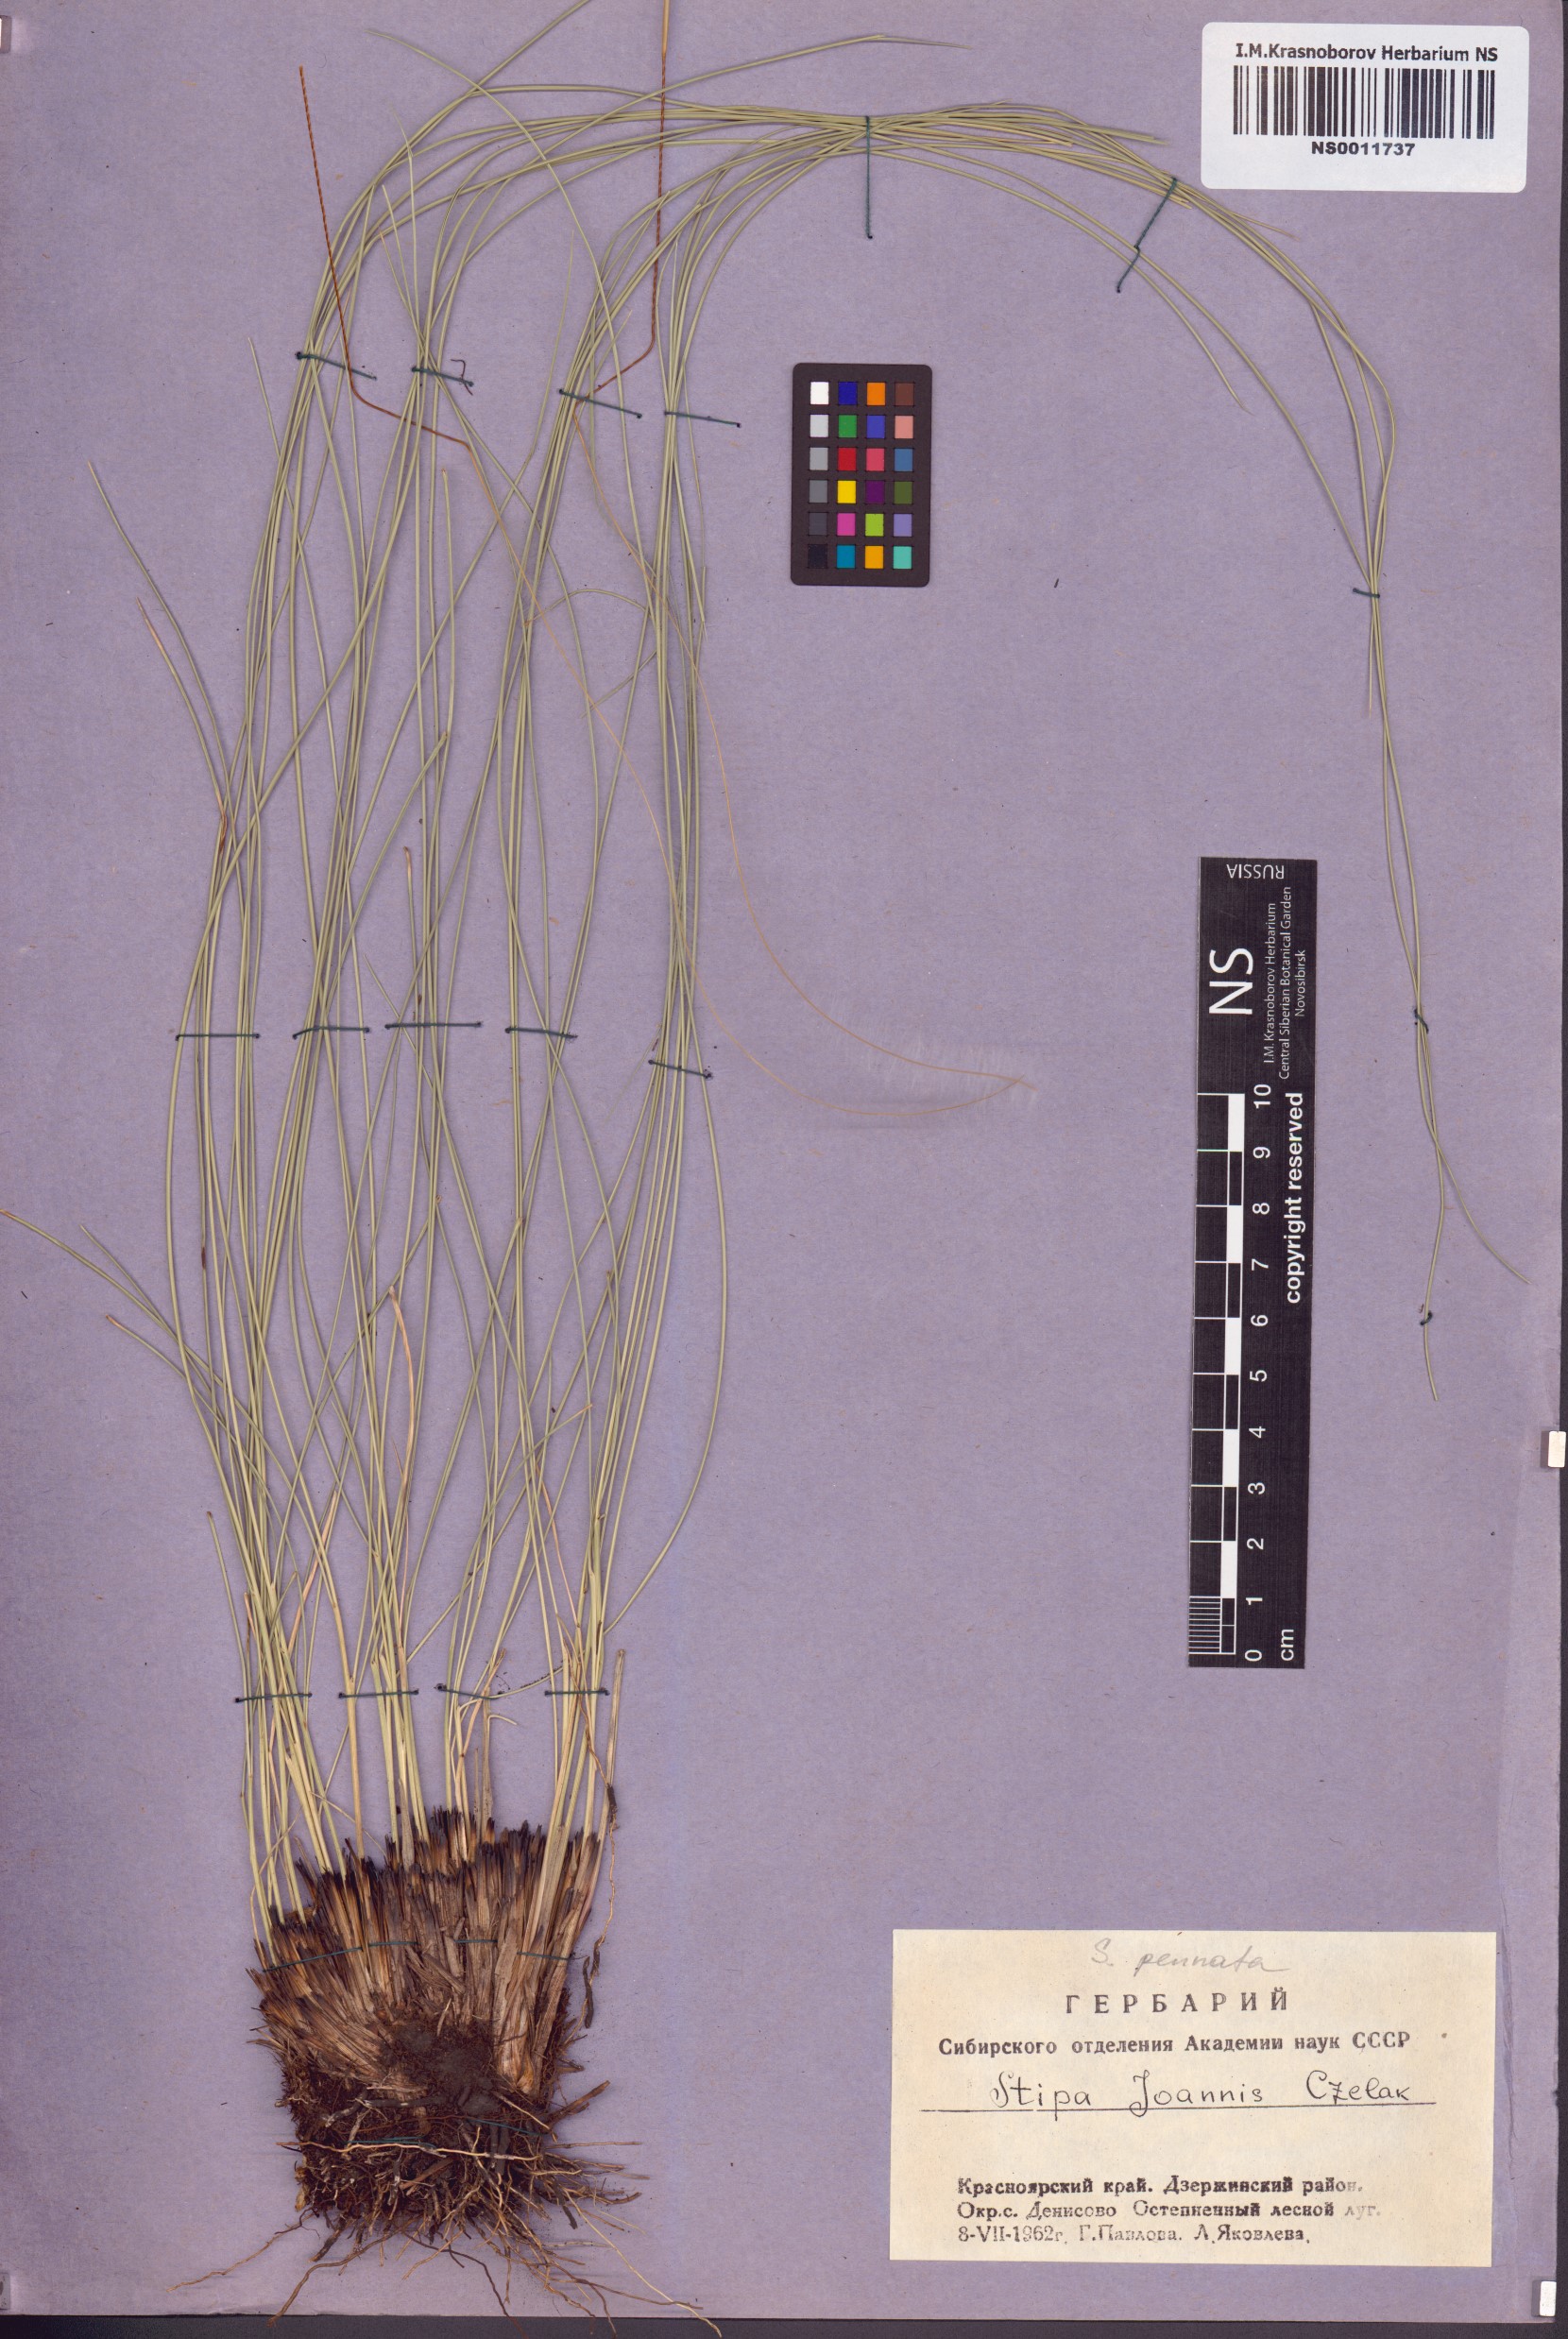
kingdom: Plantae
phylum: Tracheophyta
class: Liliopsida
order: Poales
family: Poaceae
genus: Stipa
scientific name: Stipa pennata
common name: European feather grass
